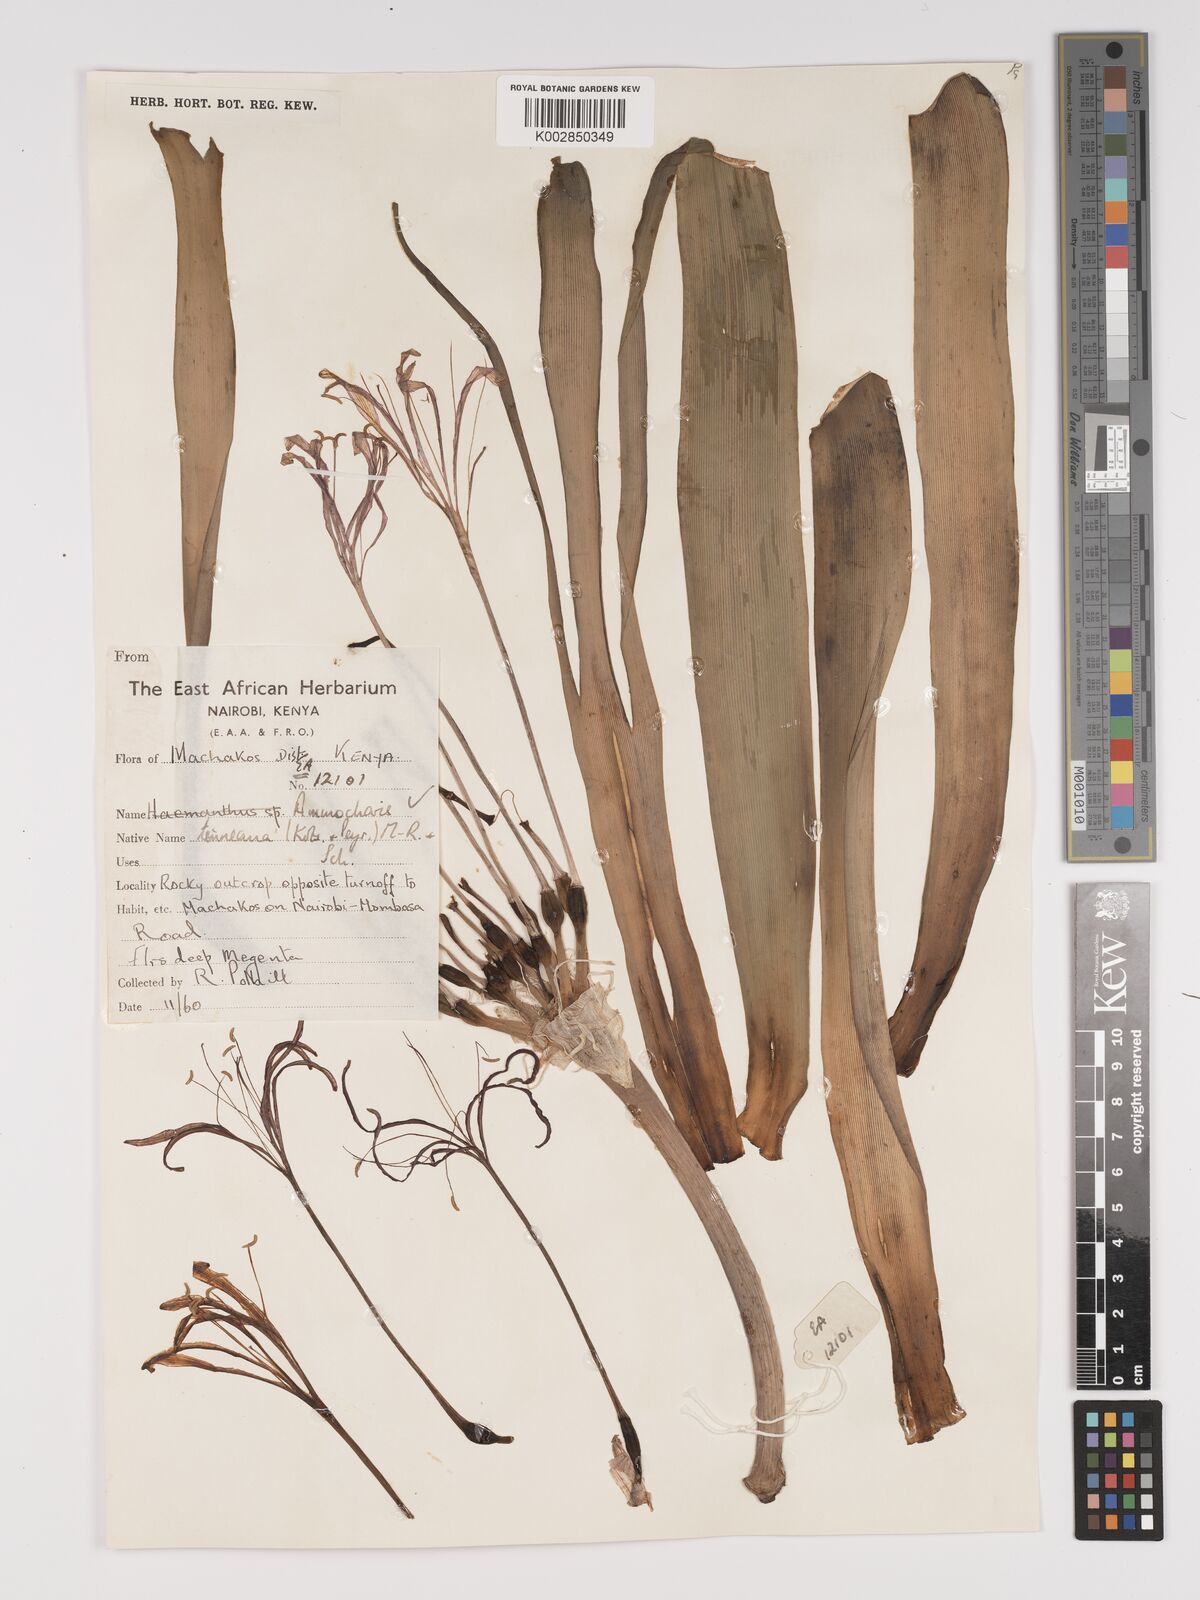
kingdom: Plantae
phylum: Tracheophyta
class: Liliopsida
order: Asparagales
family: Amaryllidaceae
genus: Ammocharis
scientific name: Ammocharis tinneana
